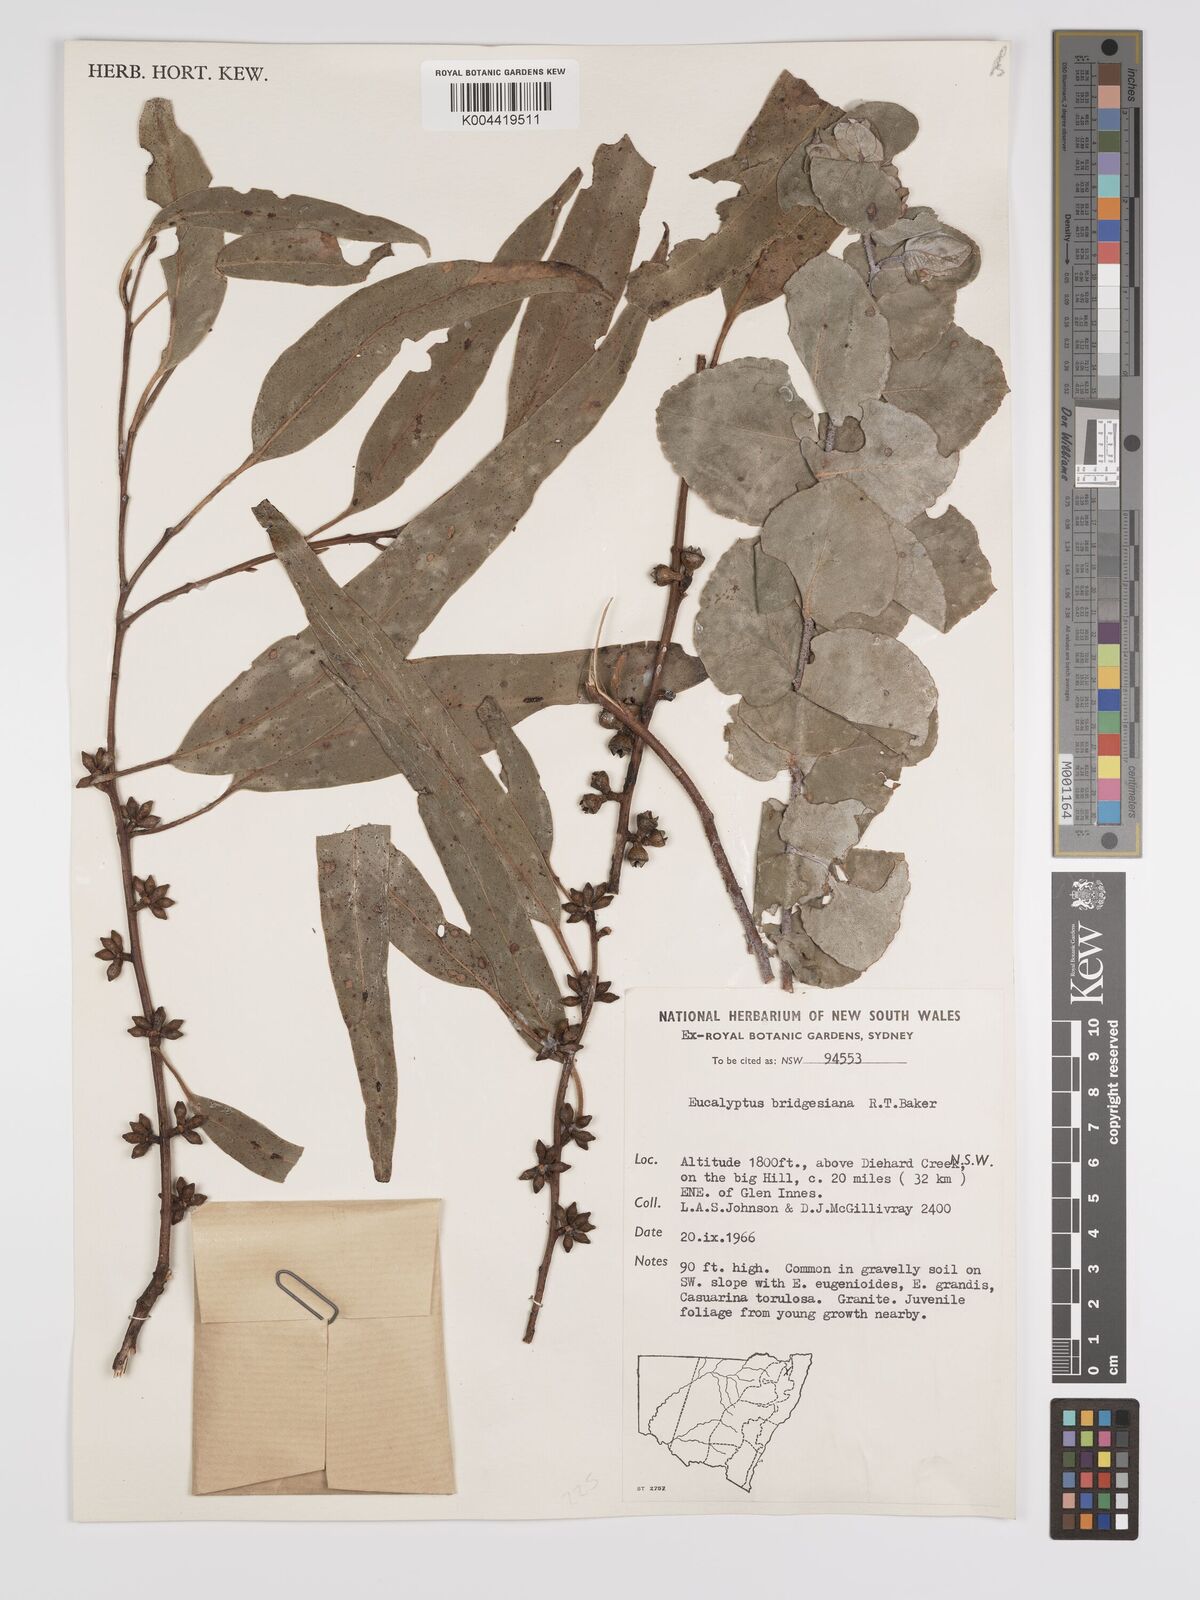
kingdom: Plantae
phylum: Tracheophyta
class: Magnoliopsida
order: Myrtales
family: Myrtaceae
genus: Eucalyptus
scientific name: Eucalyptus ovata
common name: Black-gum
